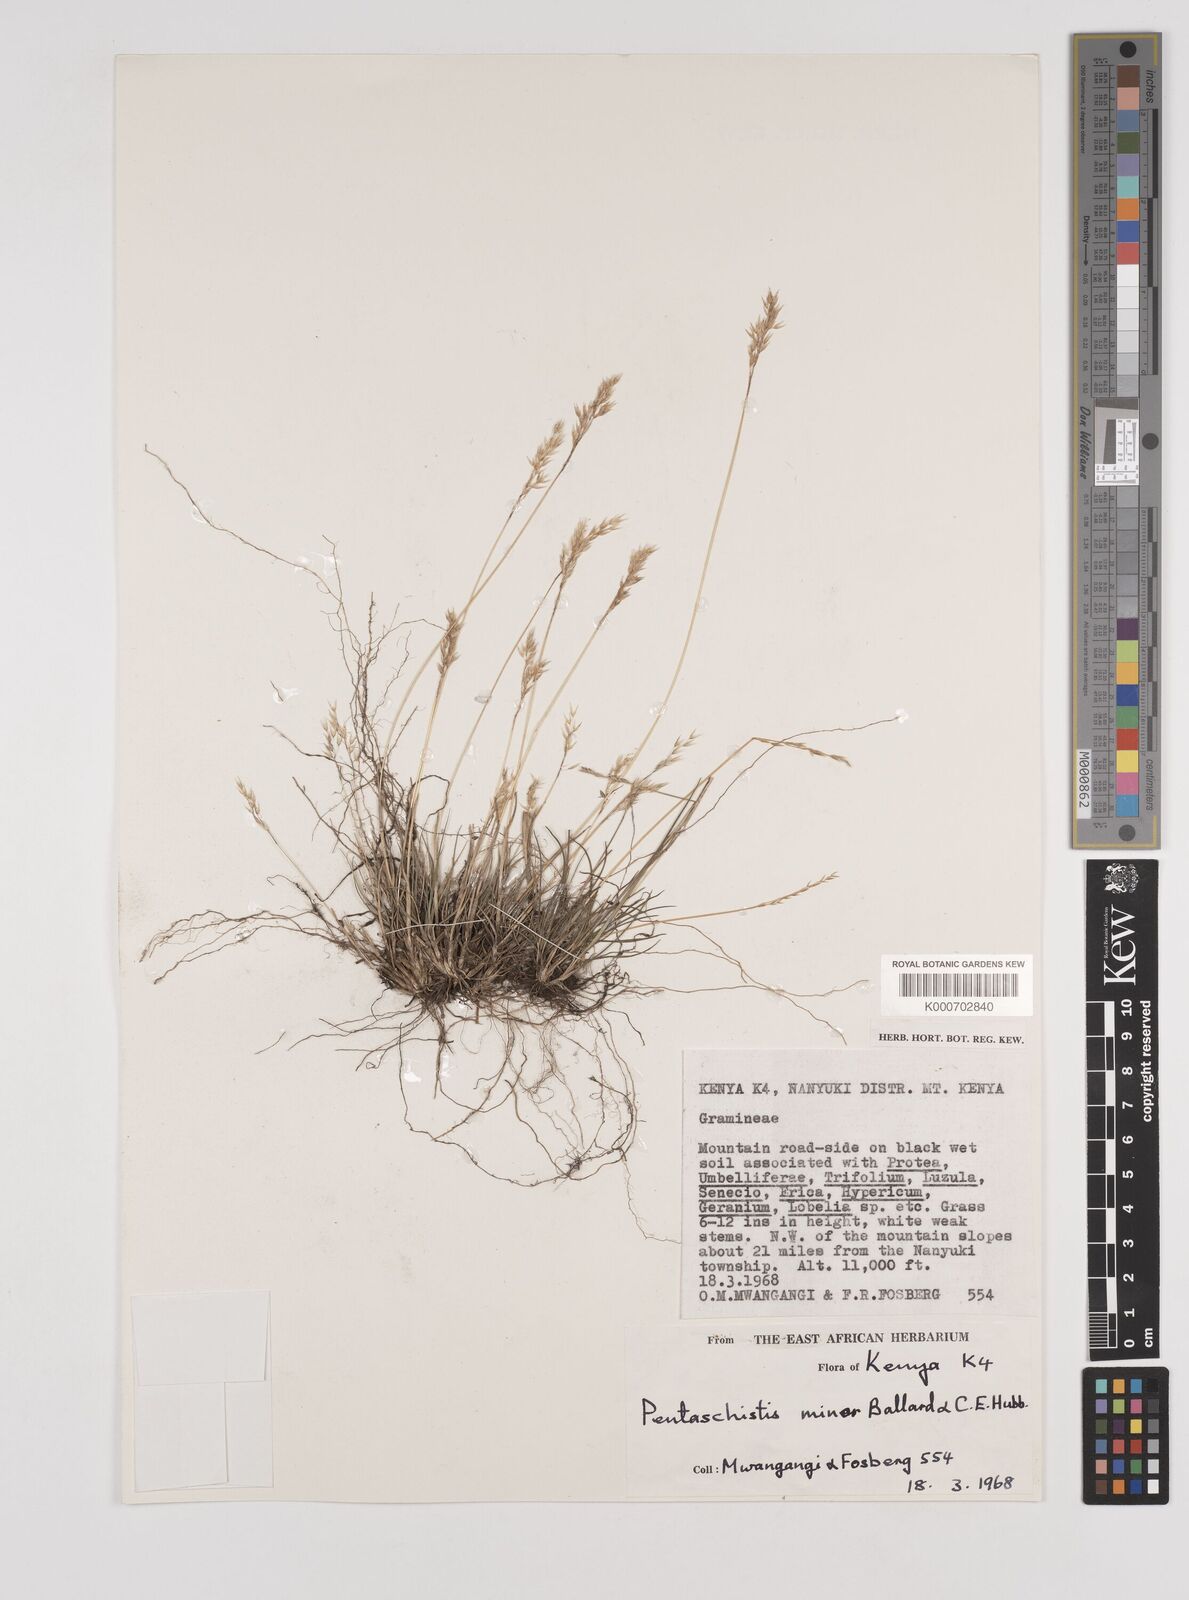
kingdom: Plantae
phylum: Tracheophyta
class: Liliopsida
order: Poales
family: Poaceae
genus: Pentameris
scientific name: Pentameris minor
